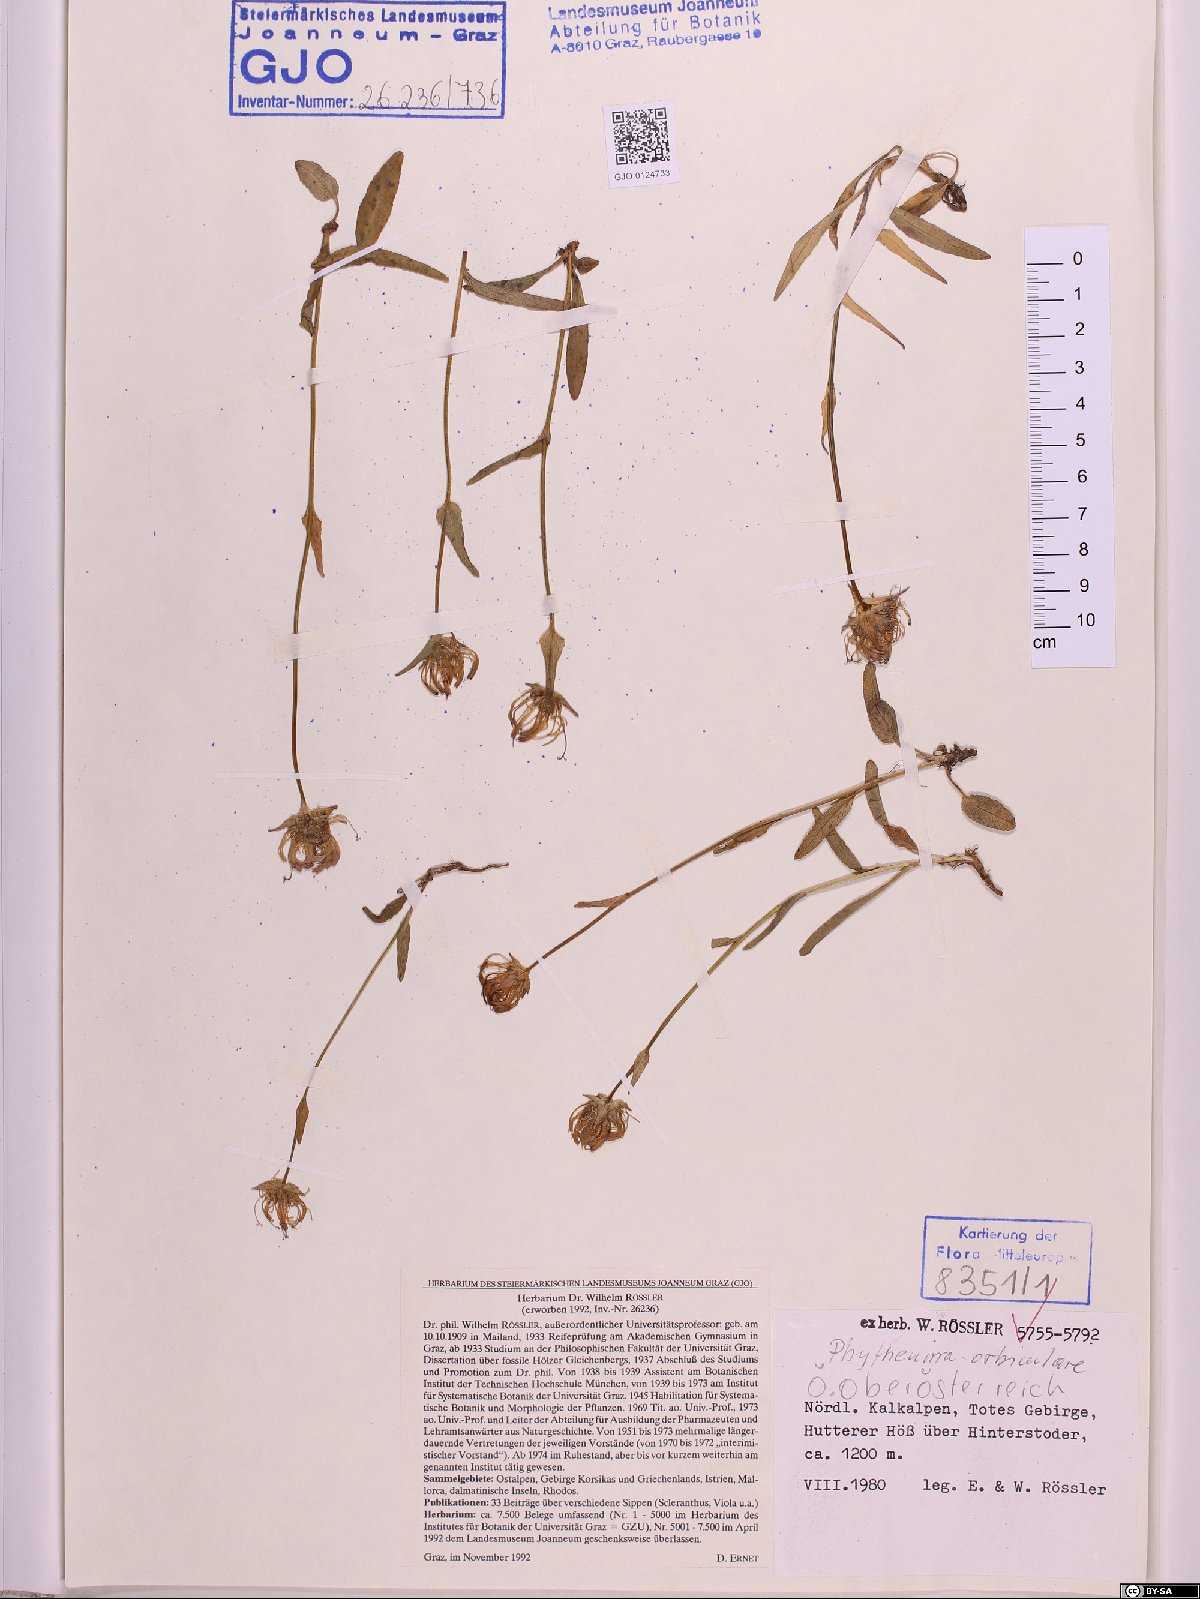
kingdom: Plantae
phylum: Tracheophyta
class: Magnoliopsida
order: Asterales
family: Campanulaceae
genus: Phyteuma
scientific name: Phyteuma orbiculare
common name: Round-headed rampion
